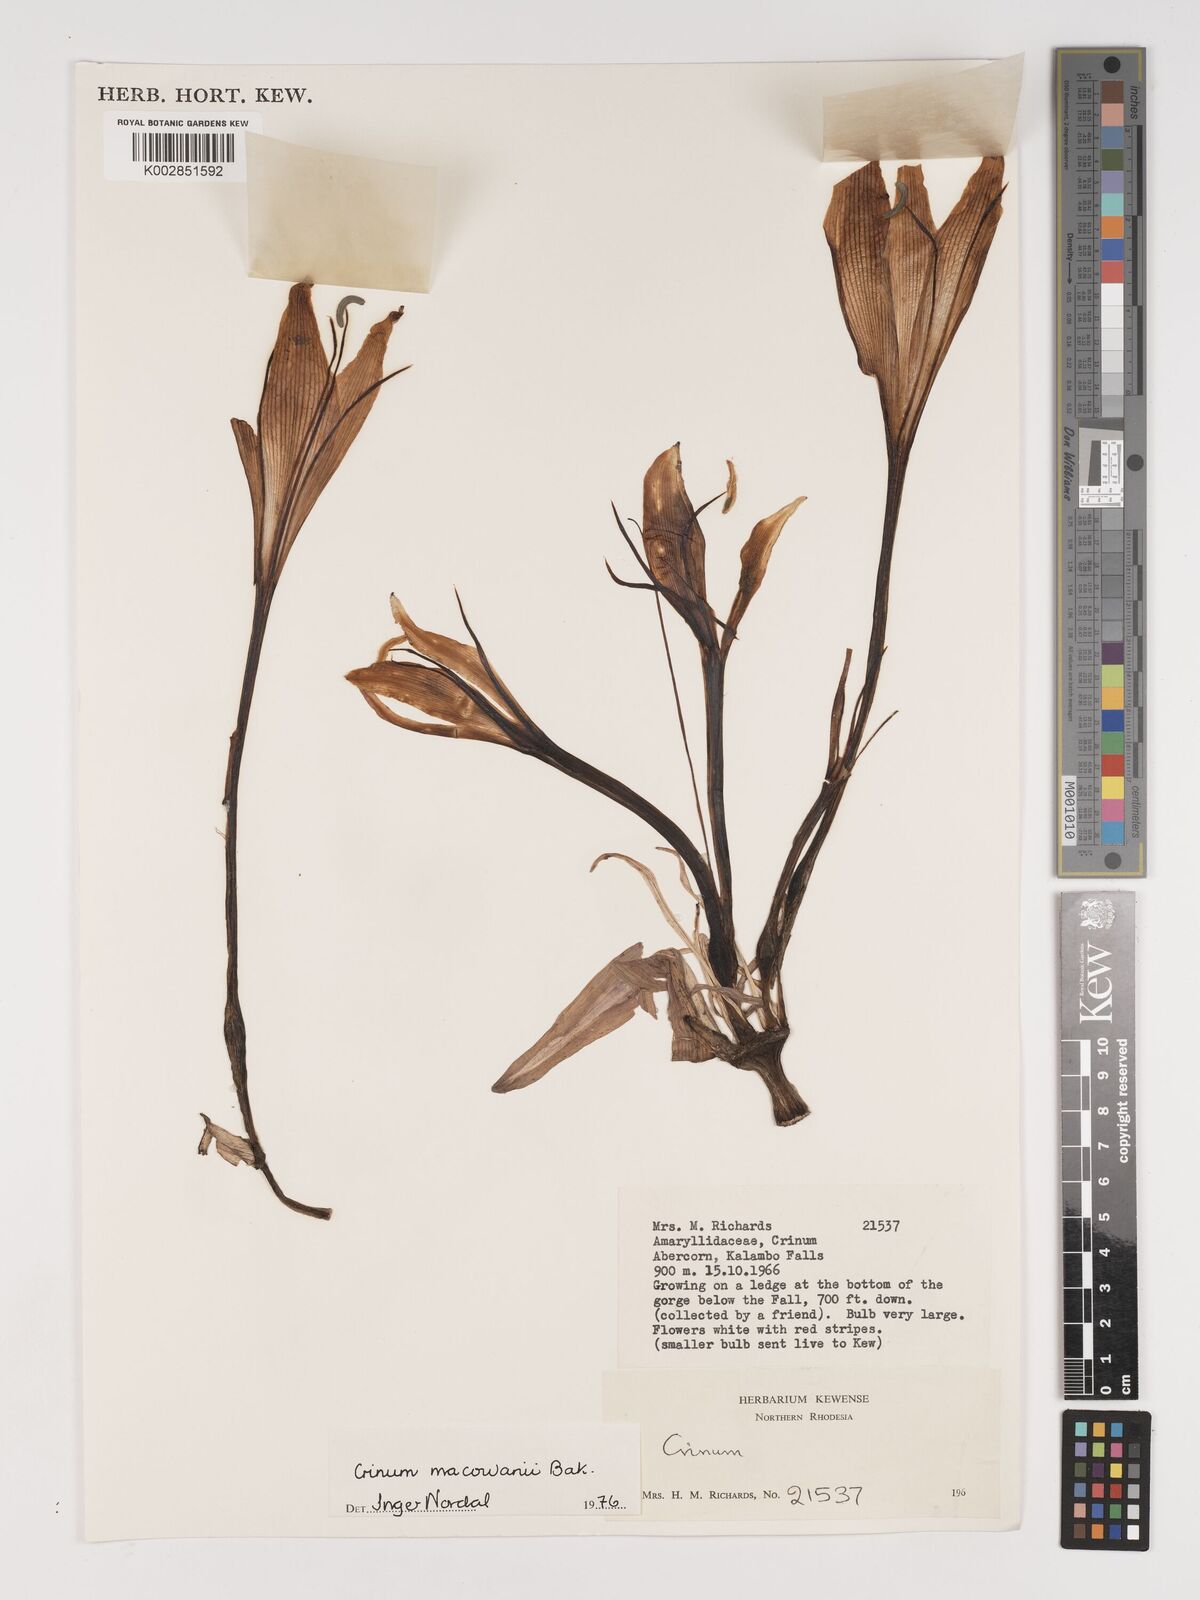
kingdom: Plantae
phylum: Tracheophyta
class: Liliopsida
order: Asparagales
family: Amaryllidaceae
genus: Crinum
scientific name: Crinum macowanii
